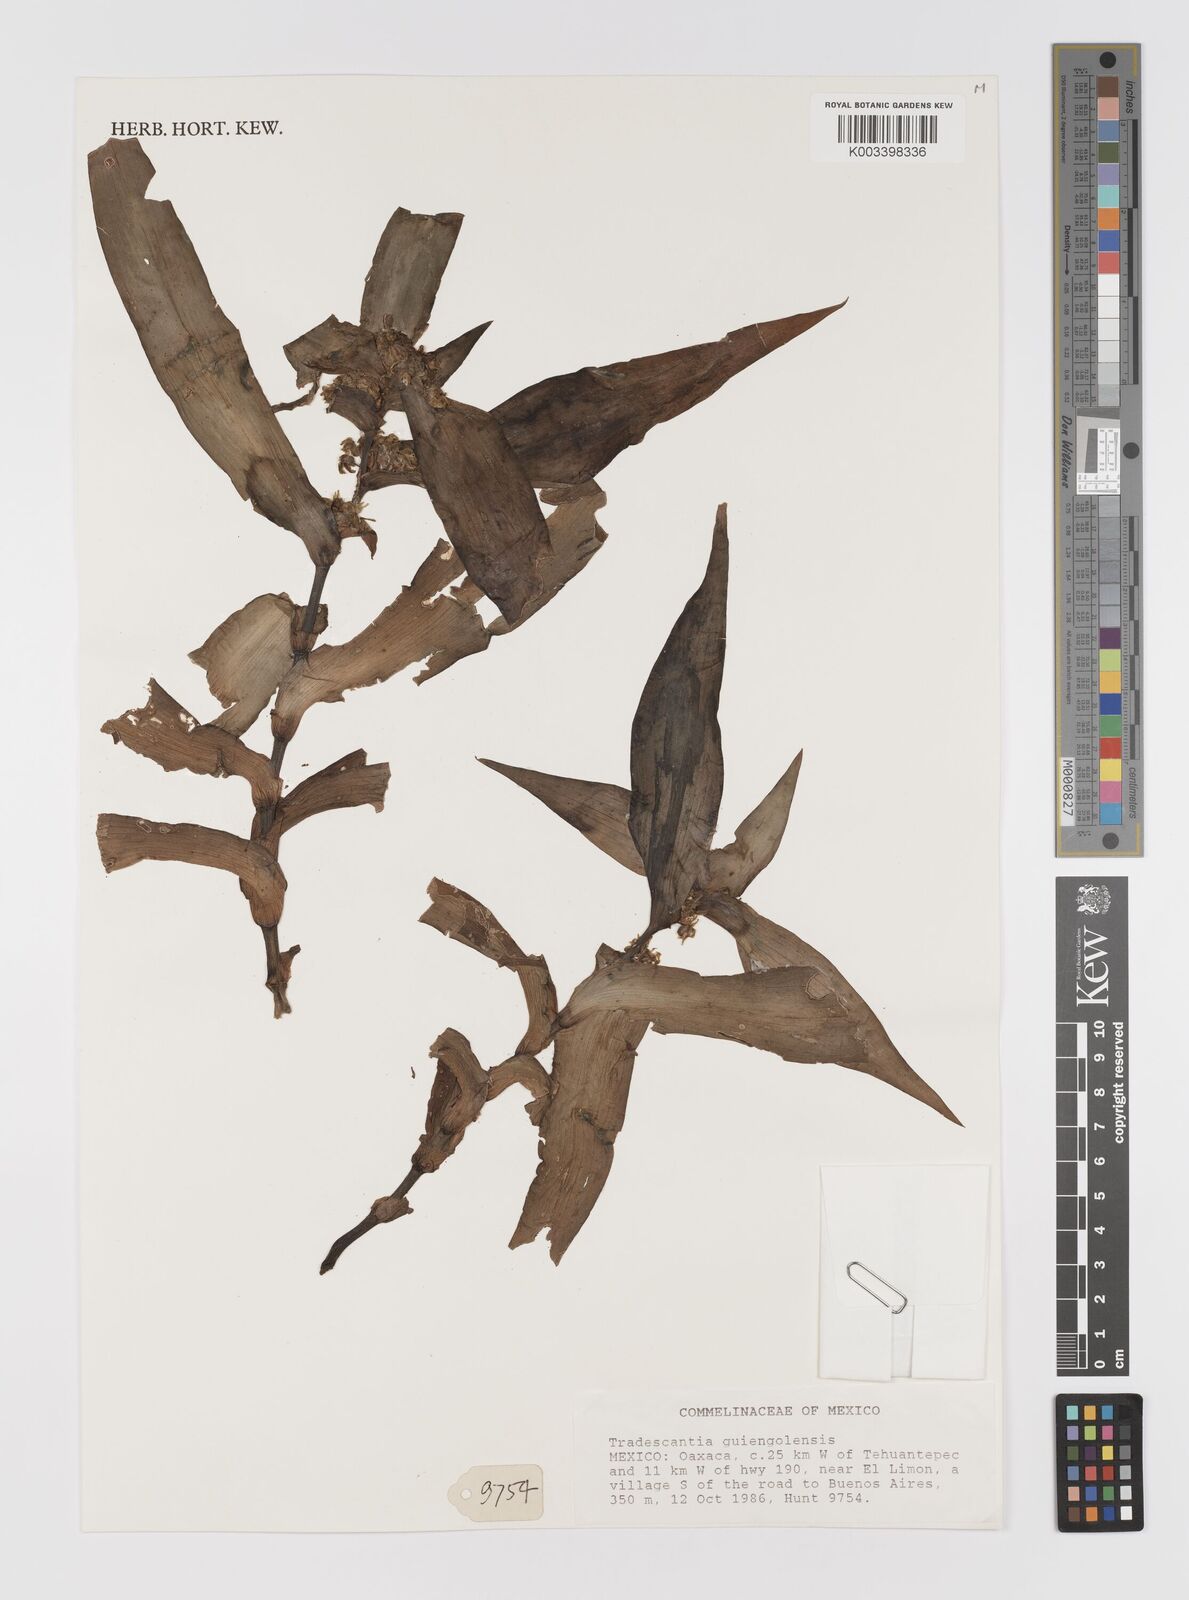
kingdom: Plantae
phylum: Tracheophyta
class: Liliopsida
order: Commelinales
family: Commelinaceae
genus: Tradescantia
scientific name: Tradescantia guiengolensis
